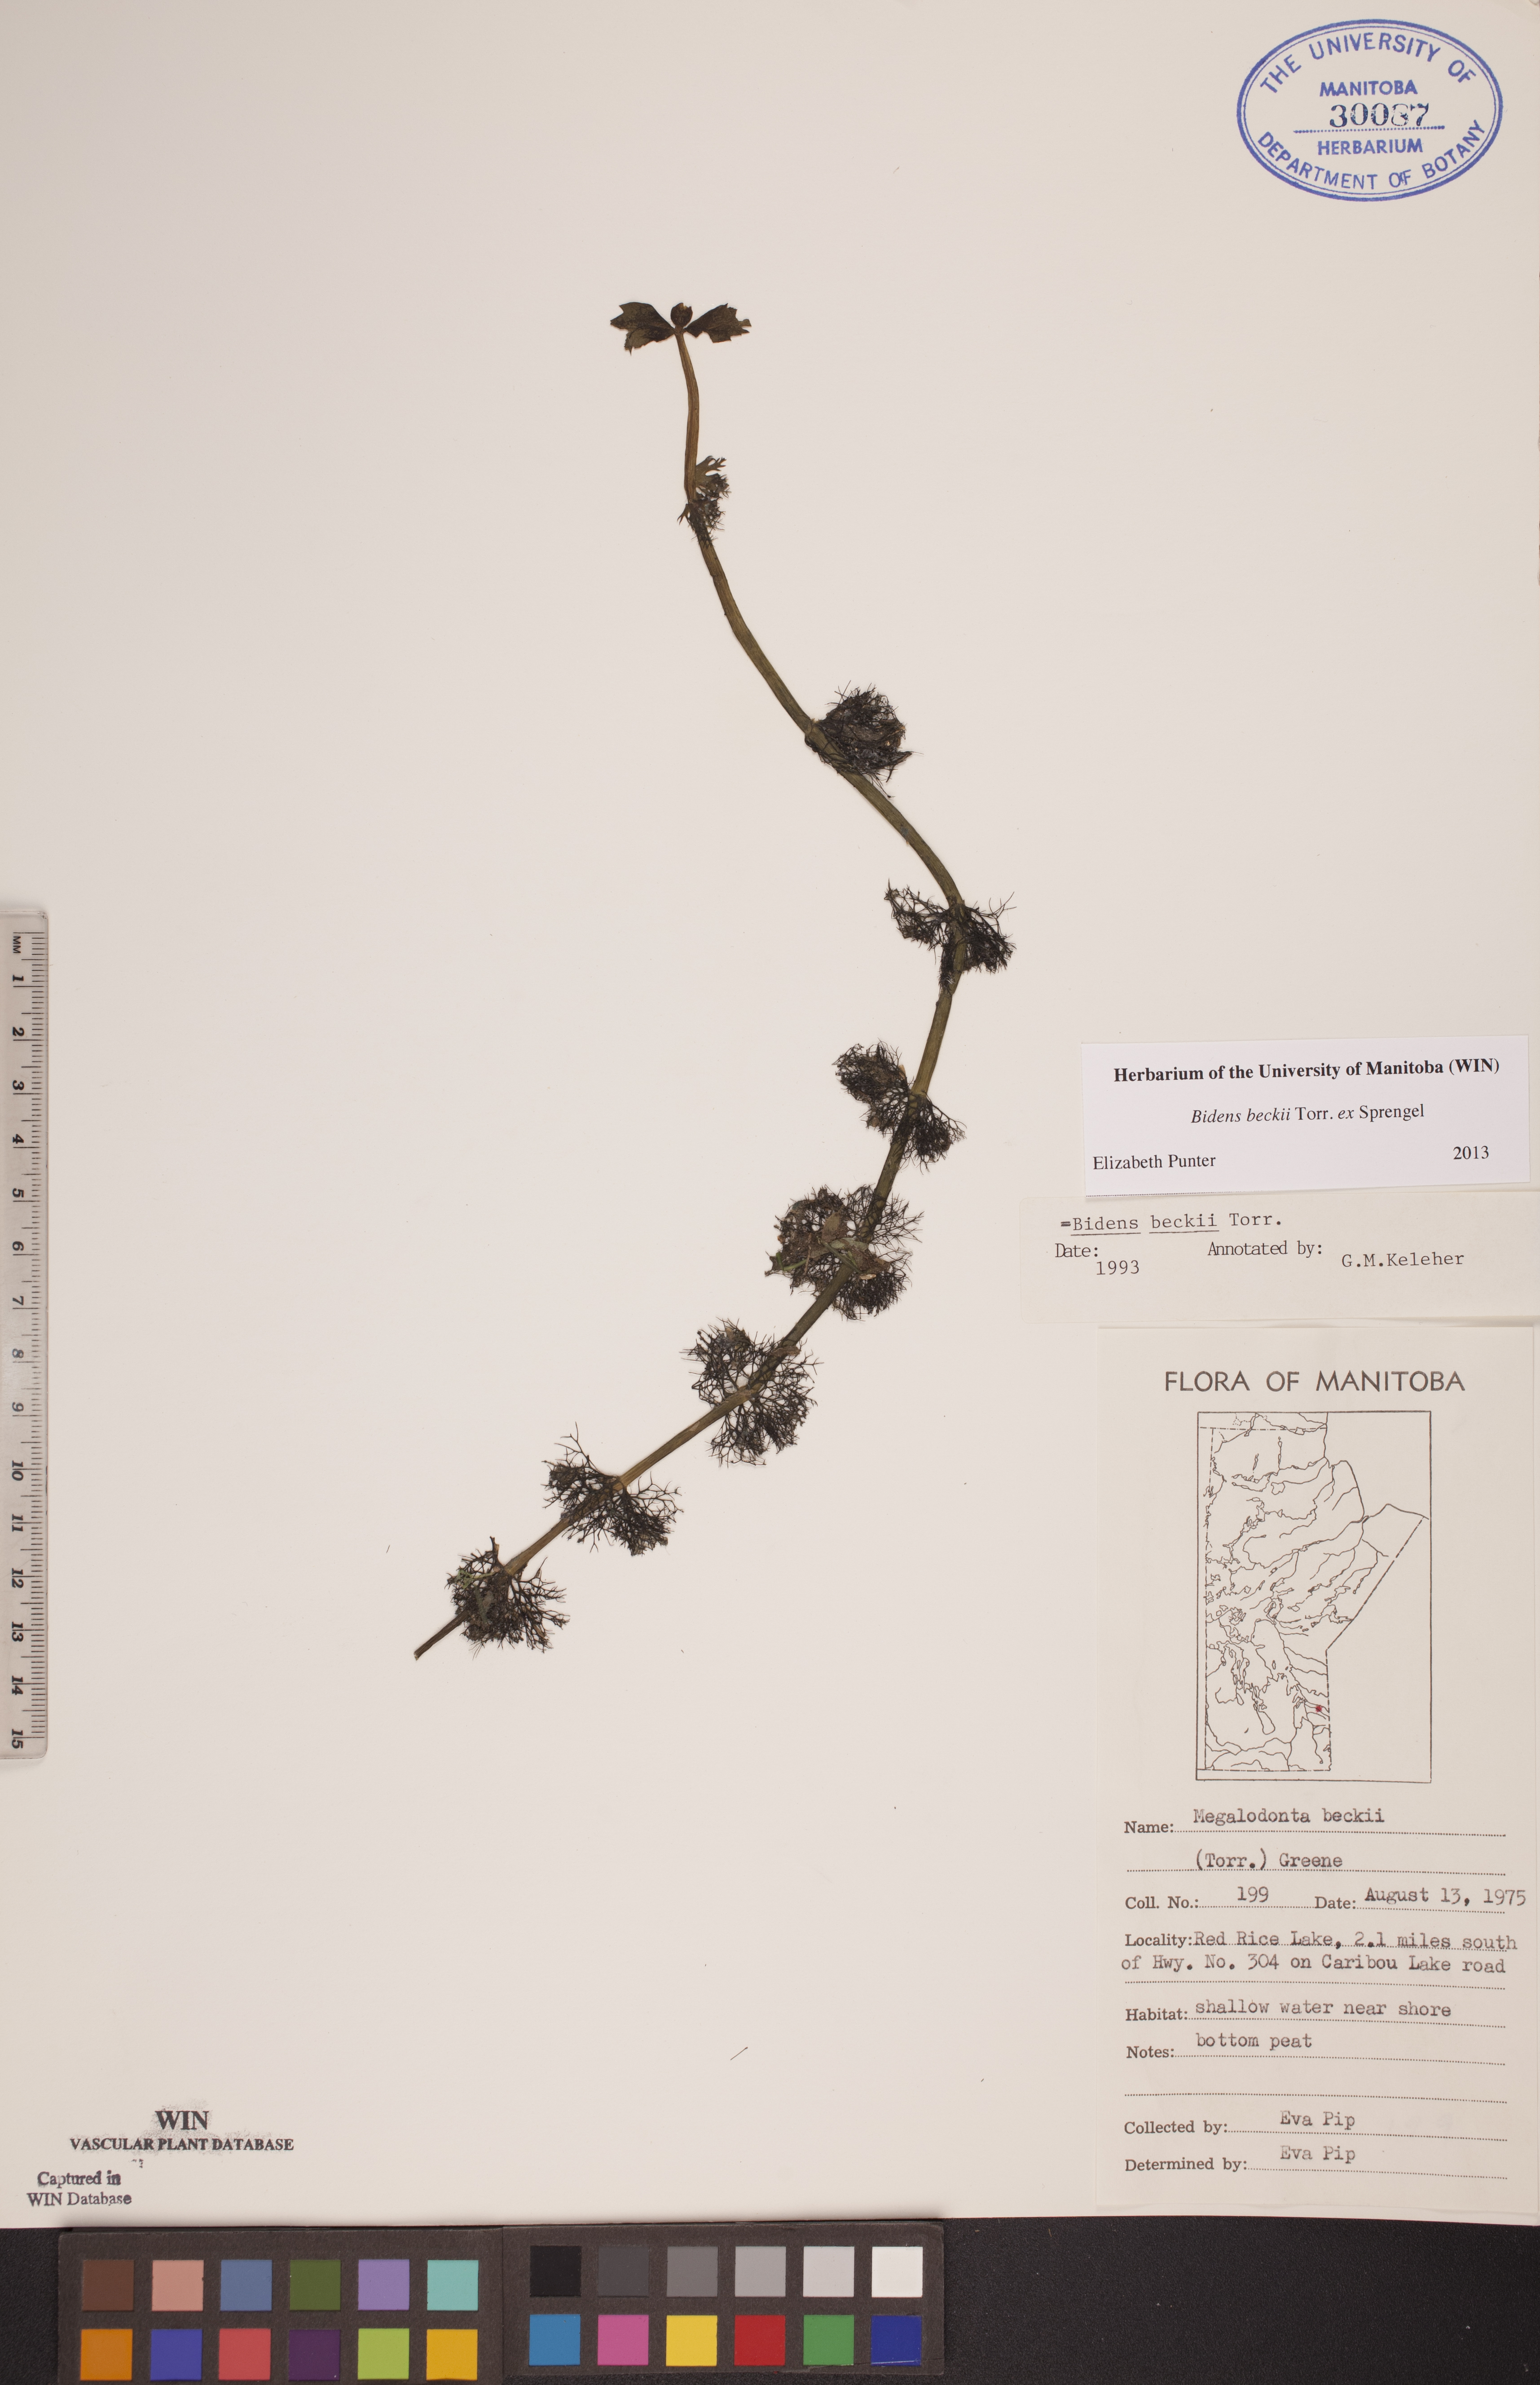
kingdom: Plantae
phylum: Tracheophyta
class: Magnoliopsida
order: Asterales
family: Asteraceae
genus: Bidens
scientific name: Bidens beckii
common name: Beck's beggarticks
